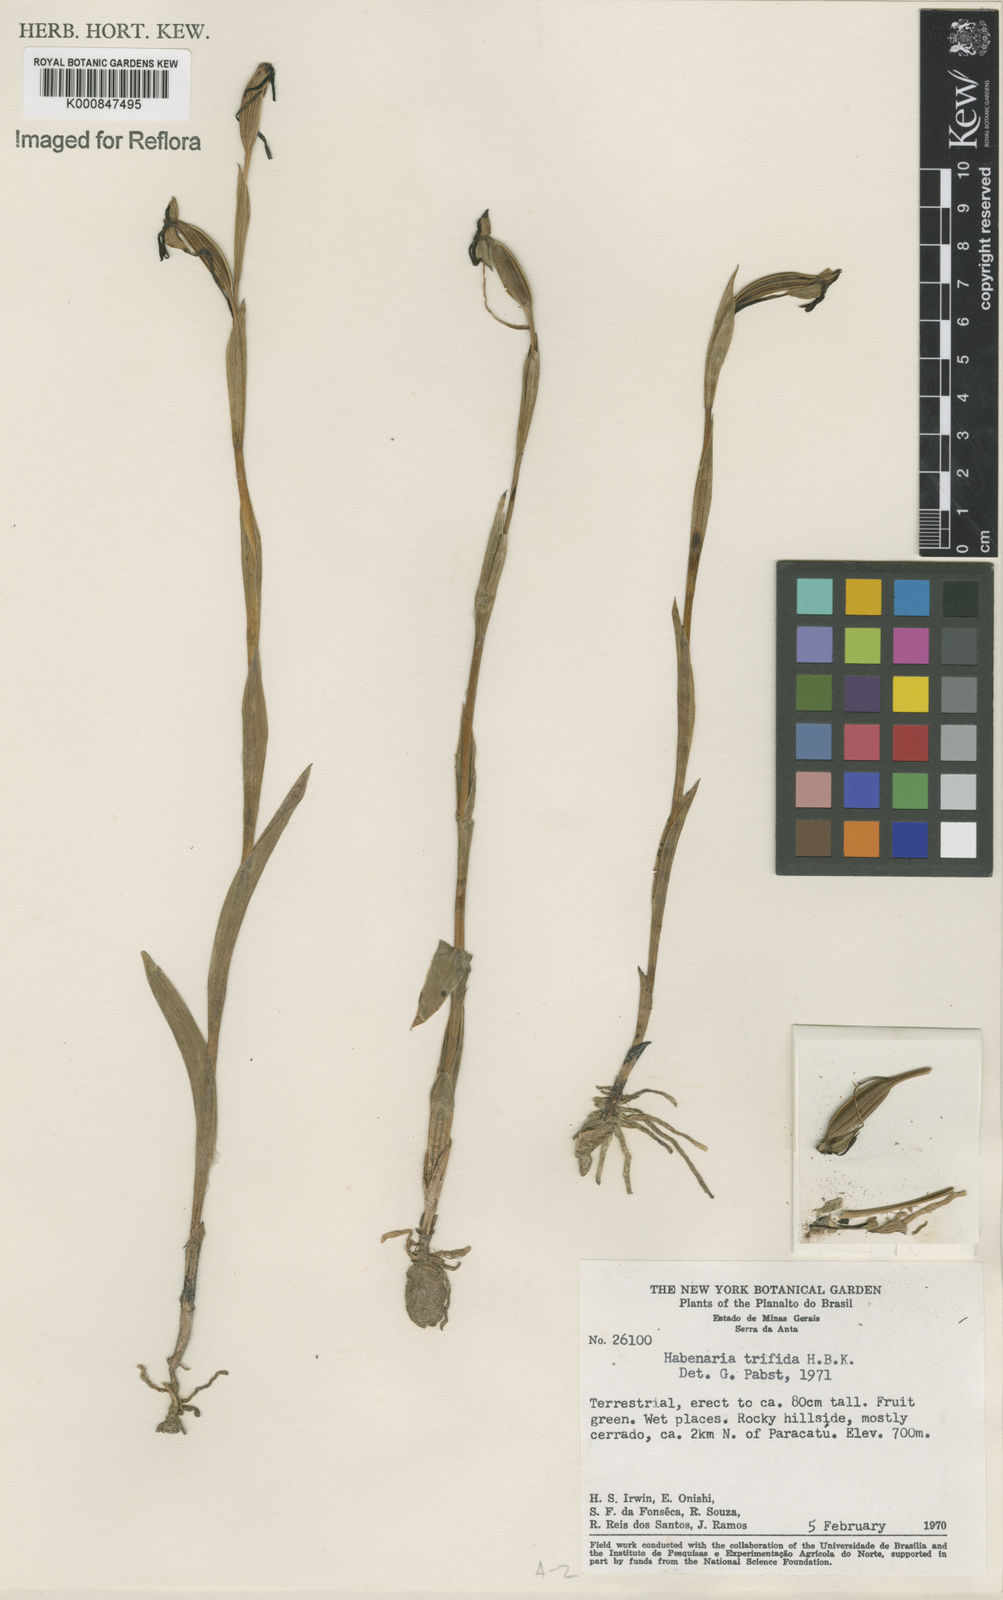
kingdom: Plantae
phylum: Tracheophyta
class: Liliopsida
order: Asparagales
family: Orchidaceae
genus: Habenaria
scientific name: Habenaria trifida
